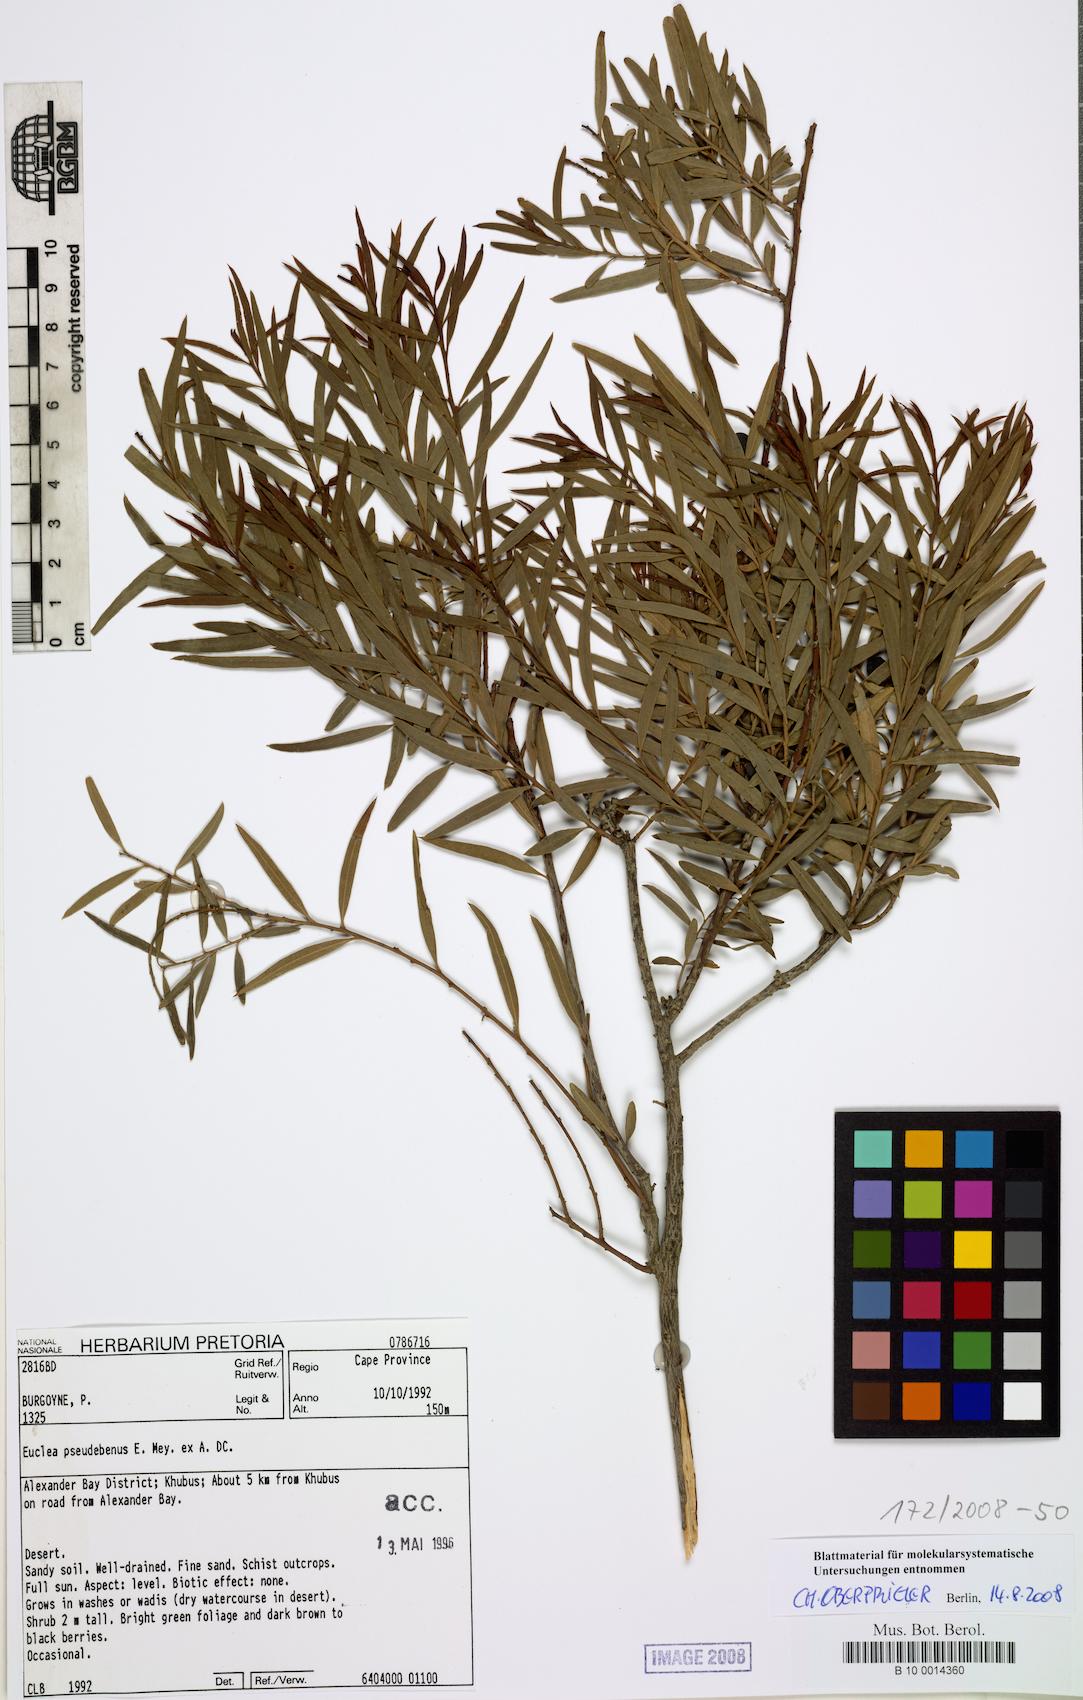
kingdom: Plantae
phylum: Tracheophyta
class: Magnoliopsida
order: Ericales
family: Ebenaceae
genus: Euclea
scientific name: Euclea pseudebenus
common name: Black ebony
